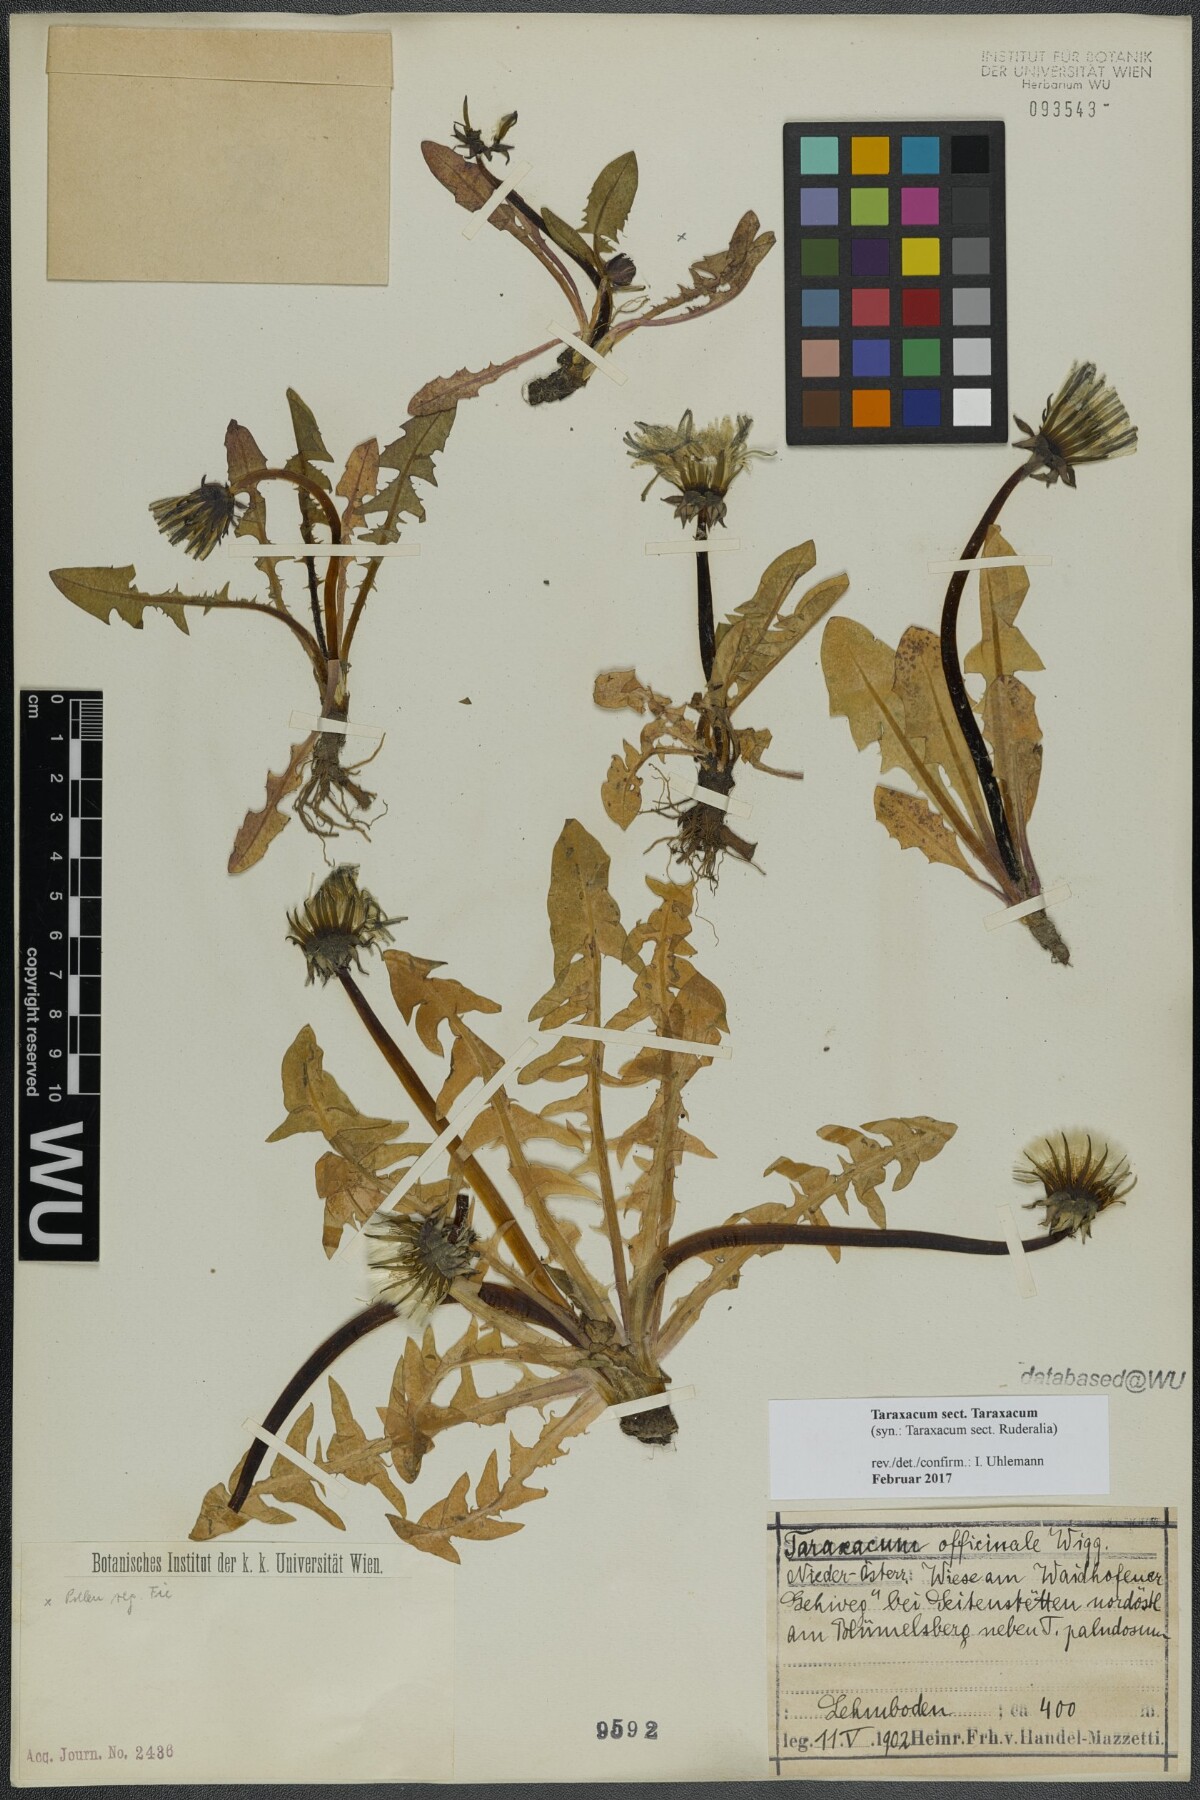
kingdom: Plantae
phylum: Tracheophyta
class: Magnoliopsida
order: Asterales
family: Asteraceae
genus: Taraxacum
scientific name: Taraxacum
